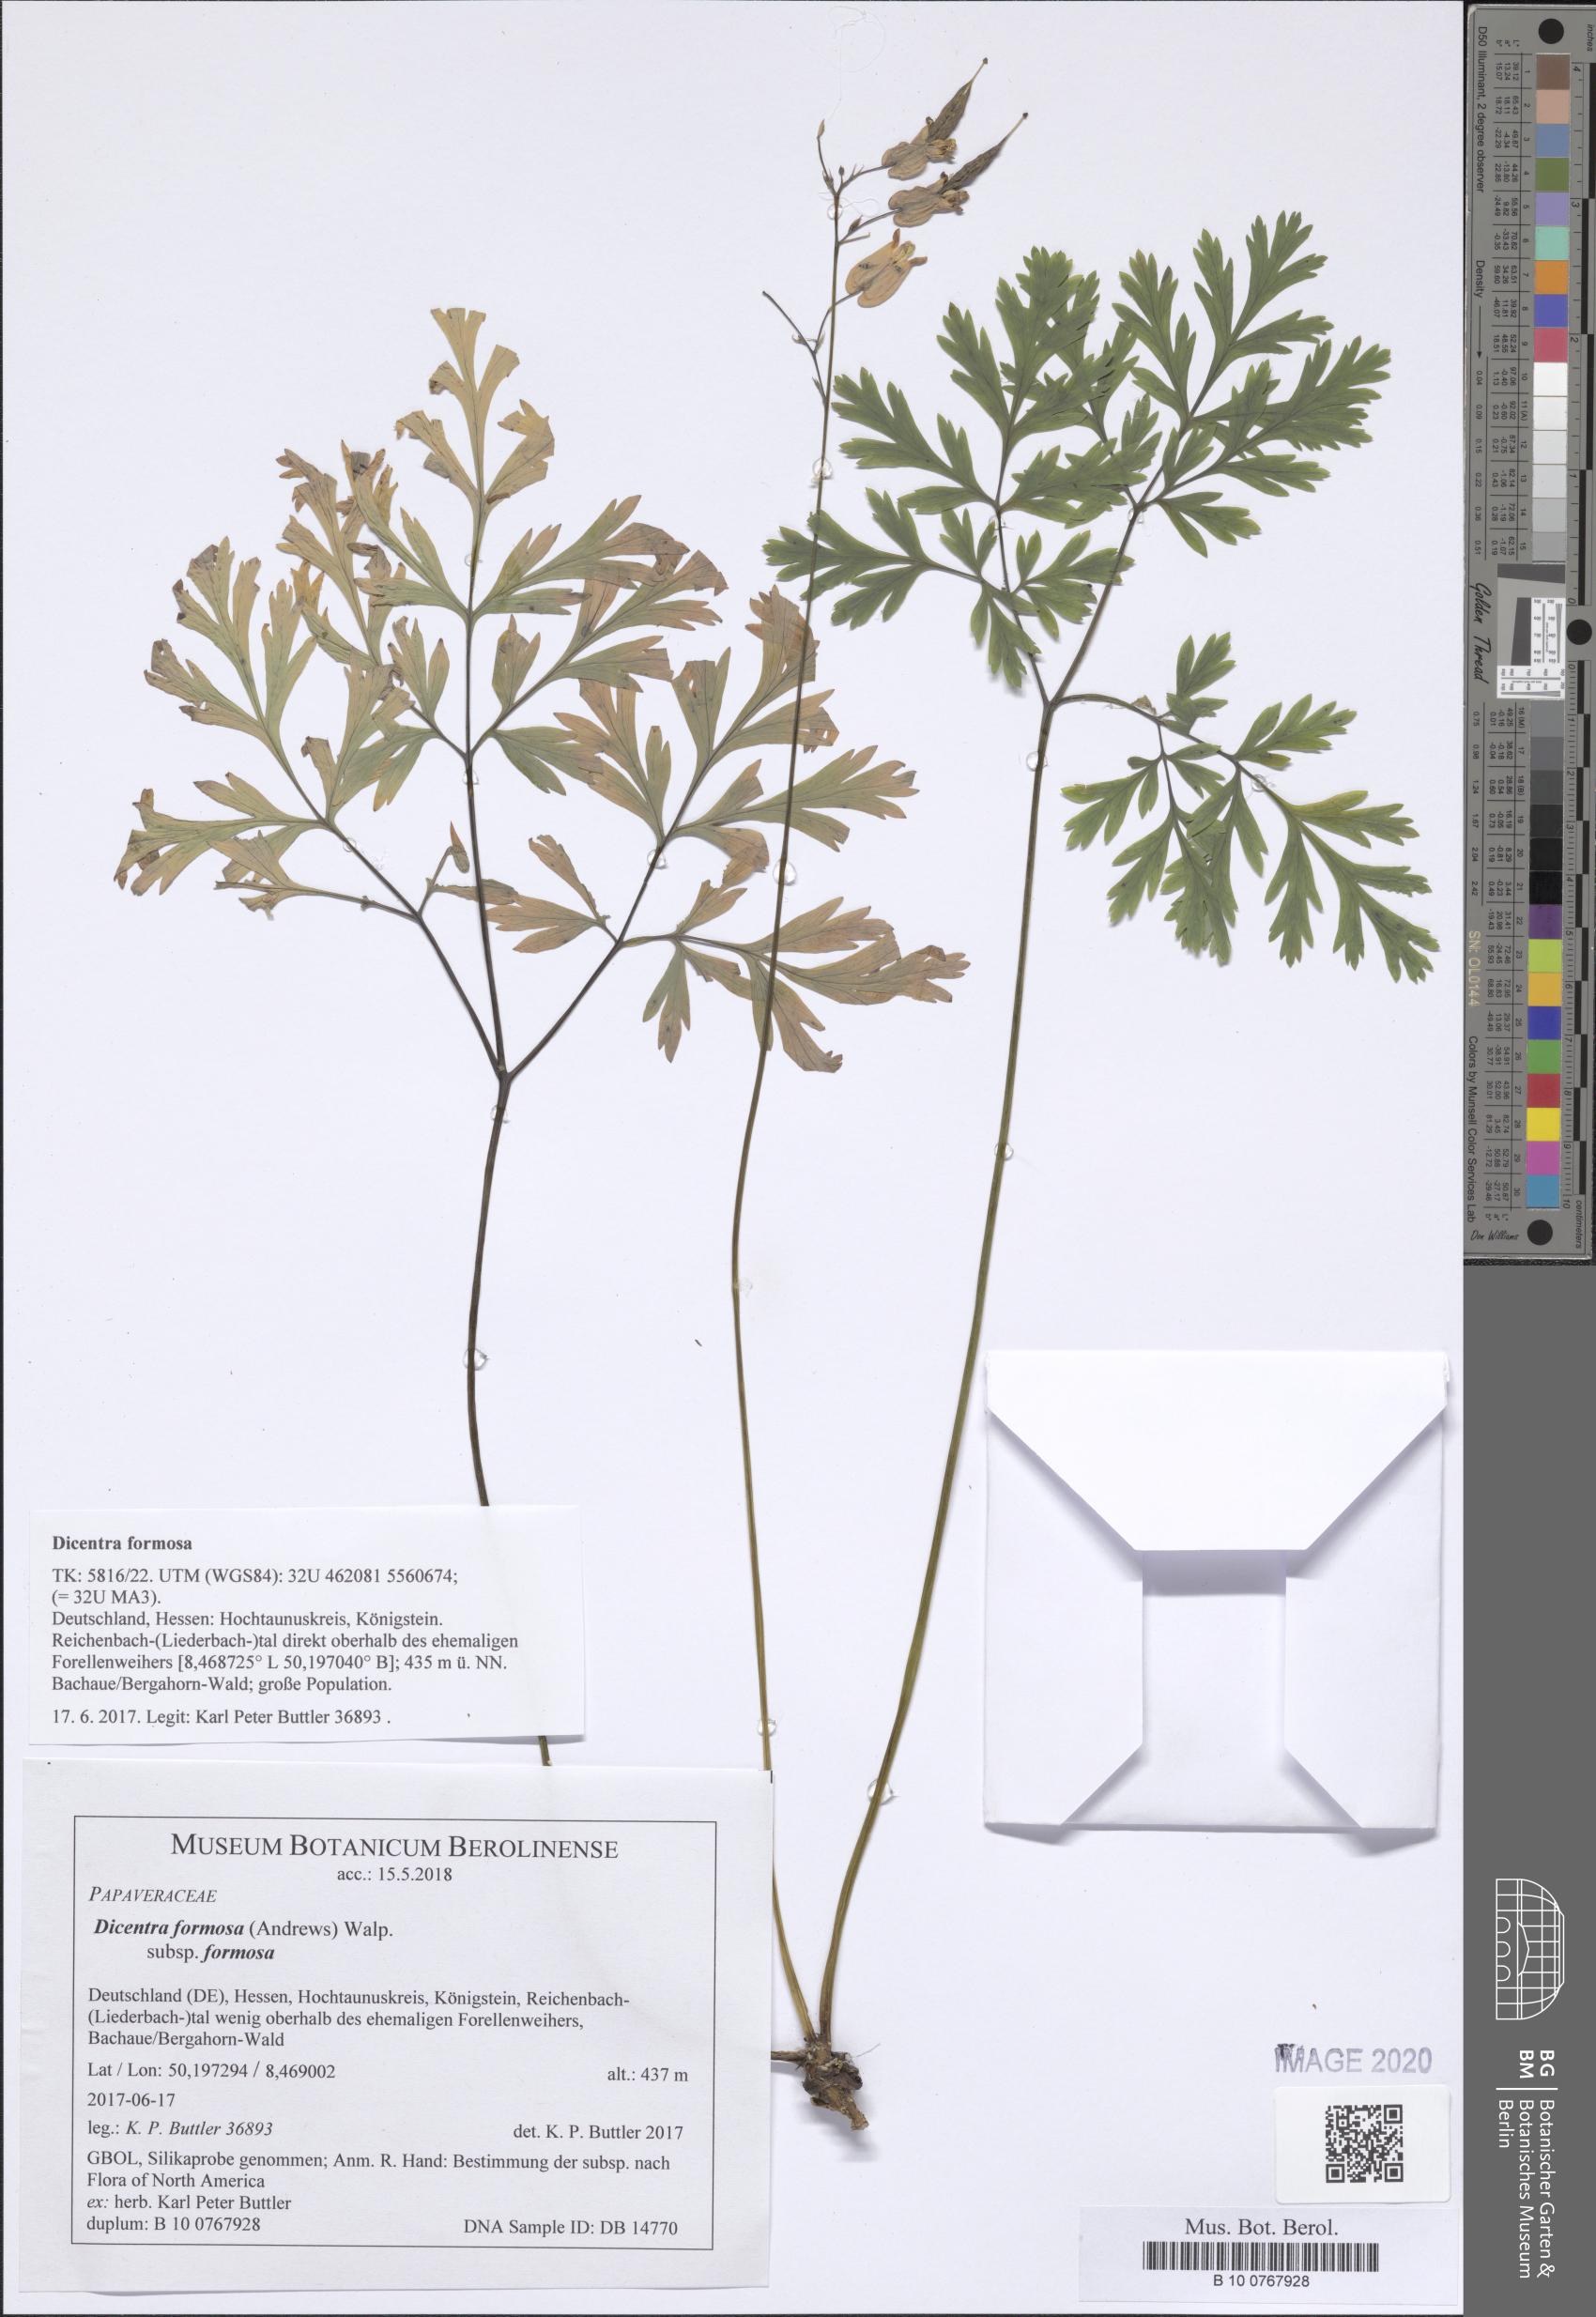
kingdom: Plantae
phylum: Tracheophyta
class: Magnoliopsida
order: Ranunculales
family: Papaveraceae
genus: Dicentra
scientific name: Dicentra formosa
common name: Bleeding-heart
